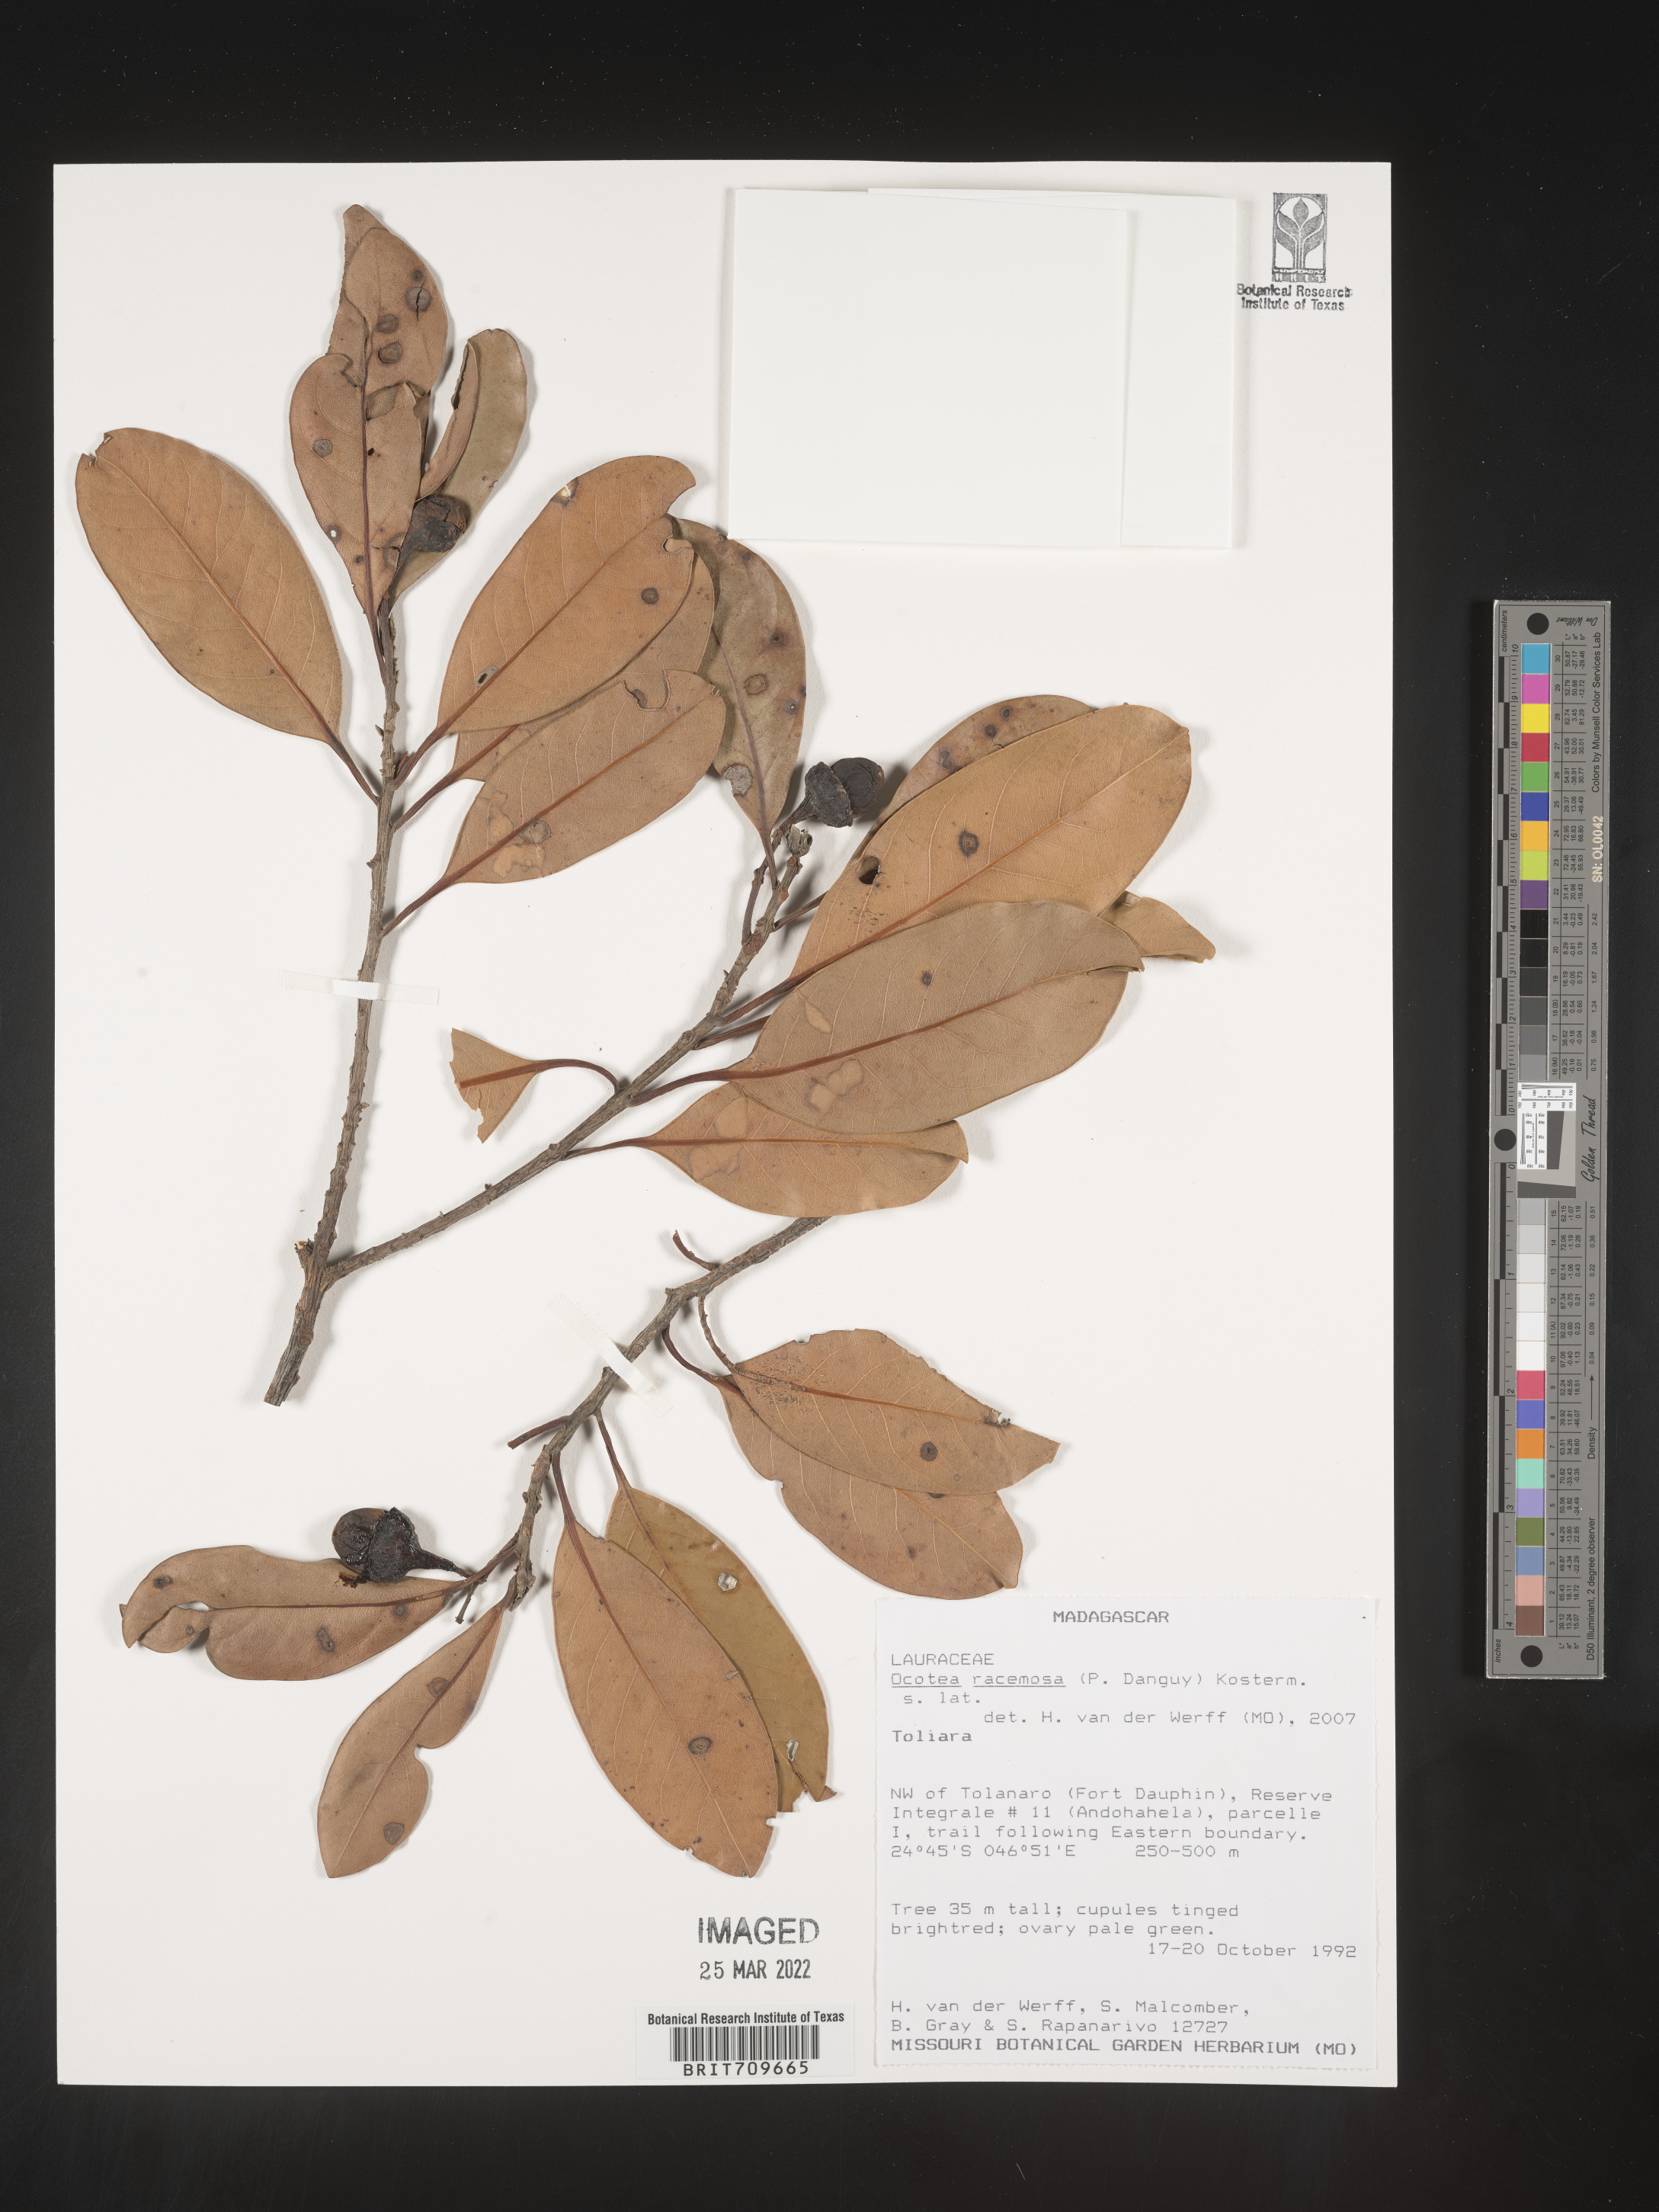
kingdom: Plantae
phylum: Tracheophyta
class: Magnoliopsida
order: Laurales
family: Lauraceae
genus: Ocotea
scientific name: Ocotea
